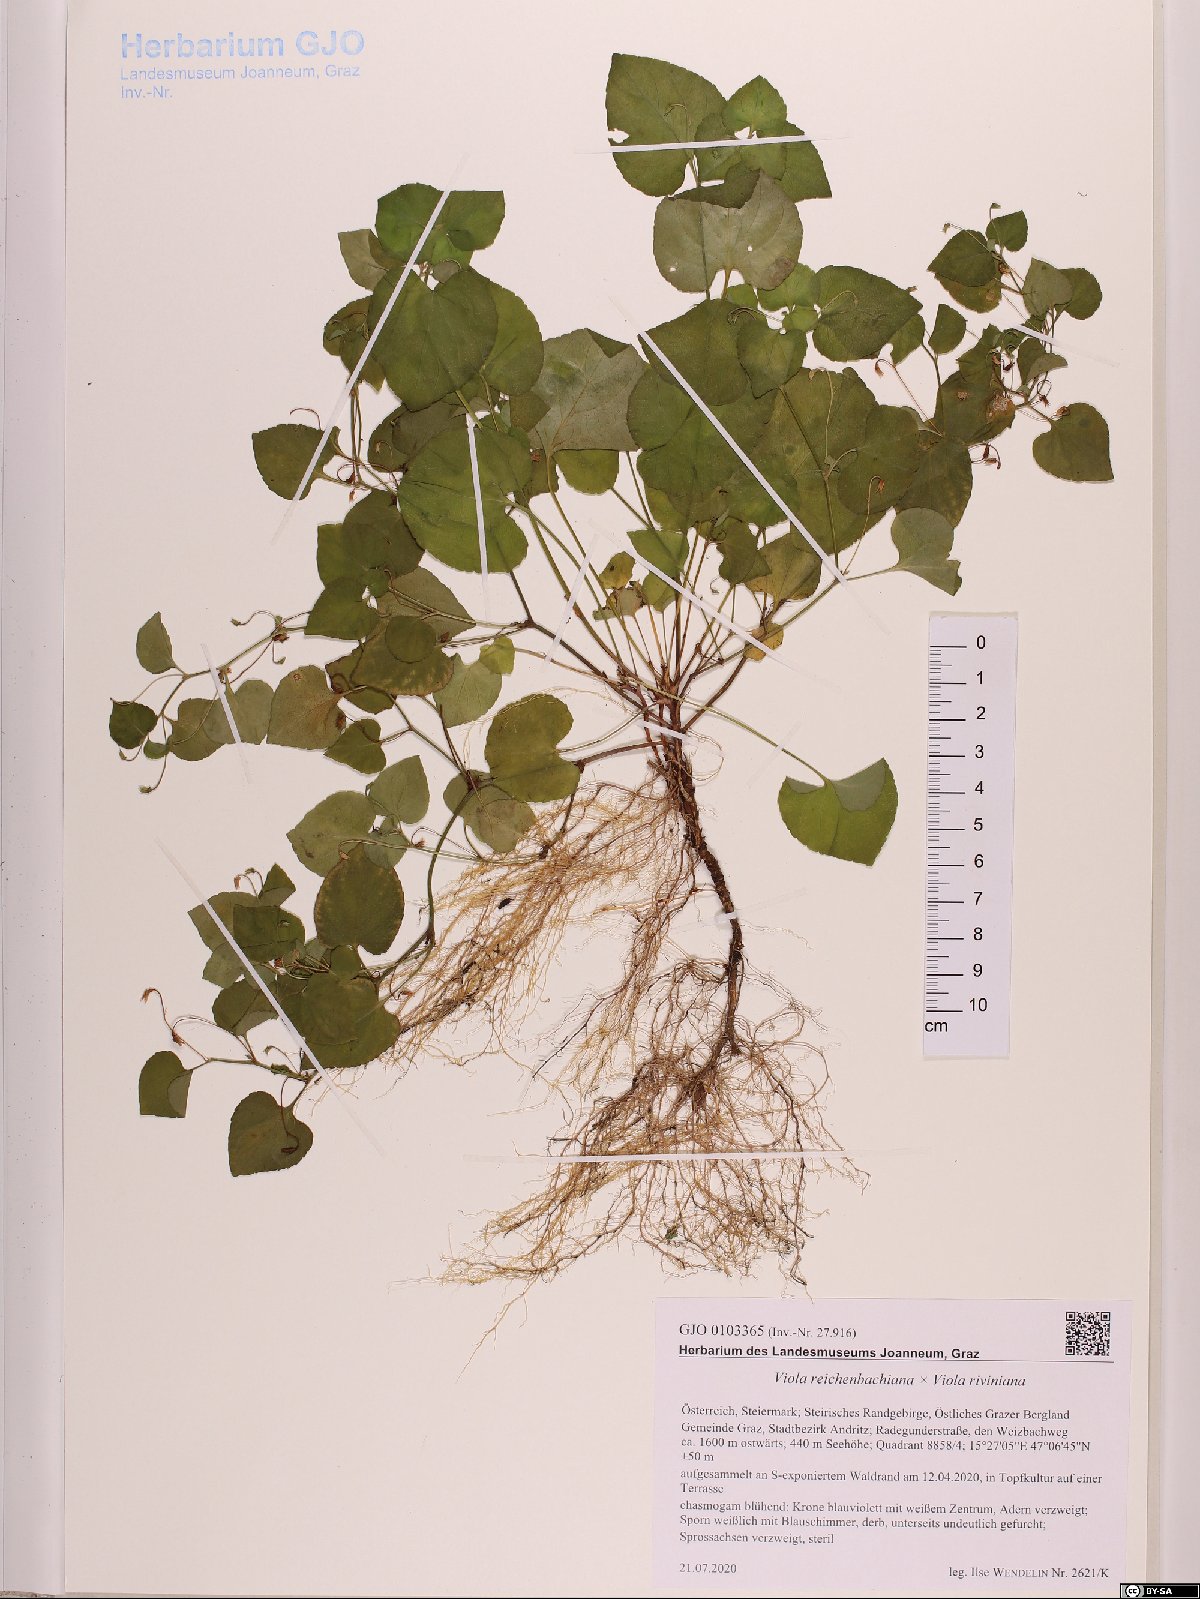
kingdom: Plantae
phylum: Tracheophyta
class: Magnoliopsida
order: Malpighiales
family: Violaceae
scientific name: Violaceae
